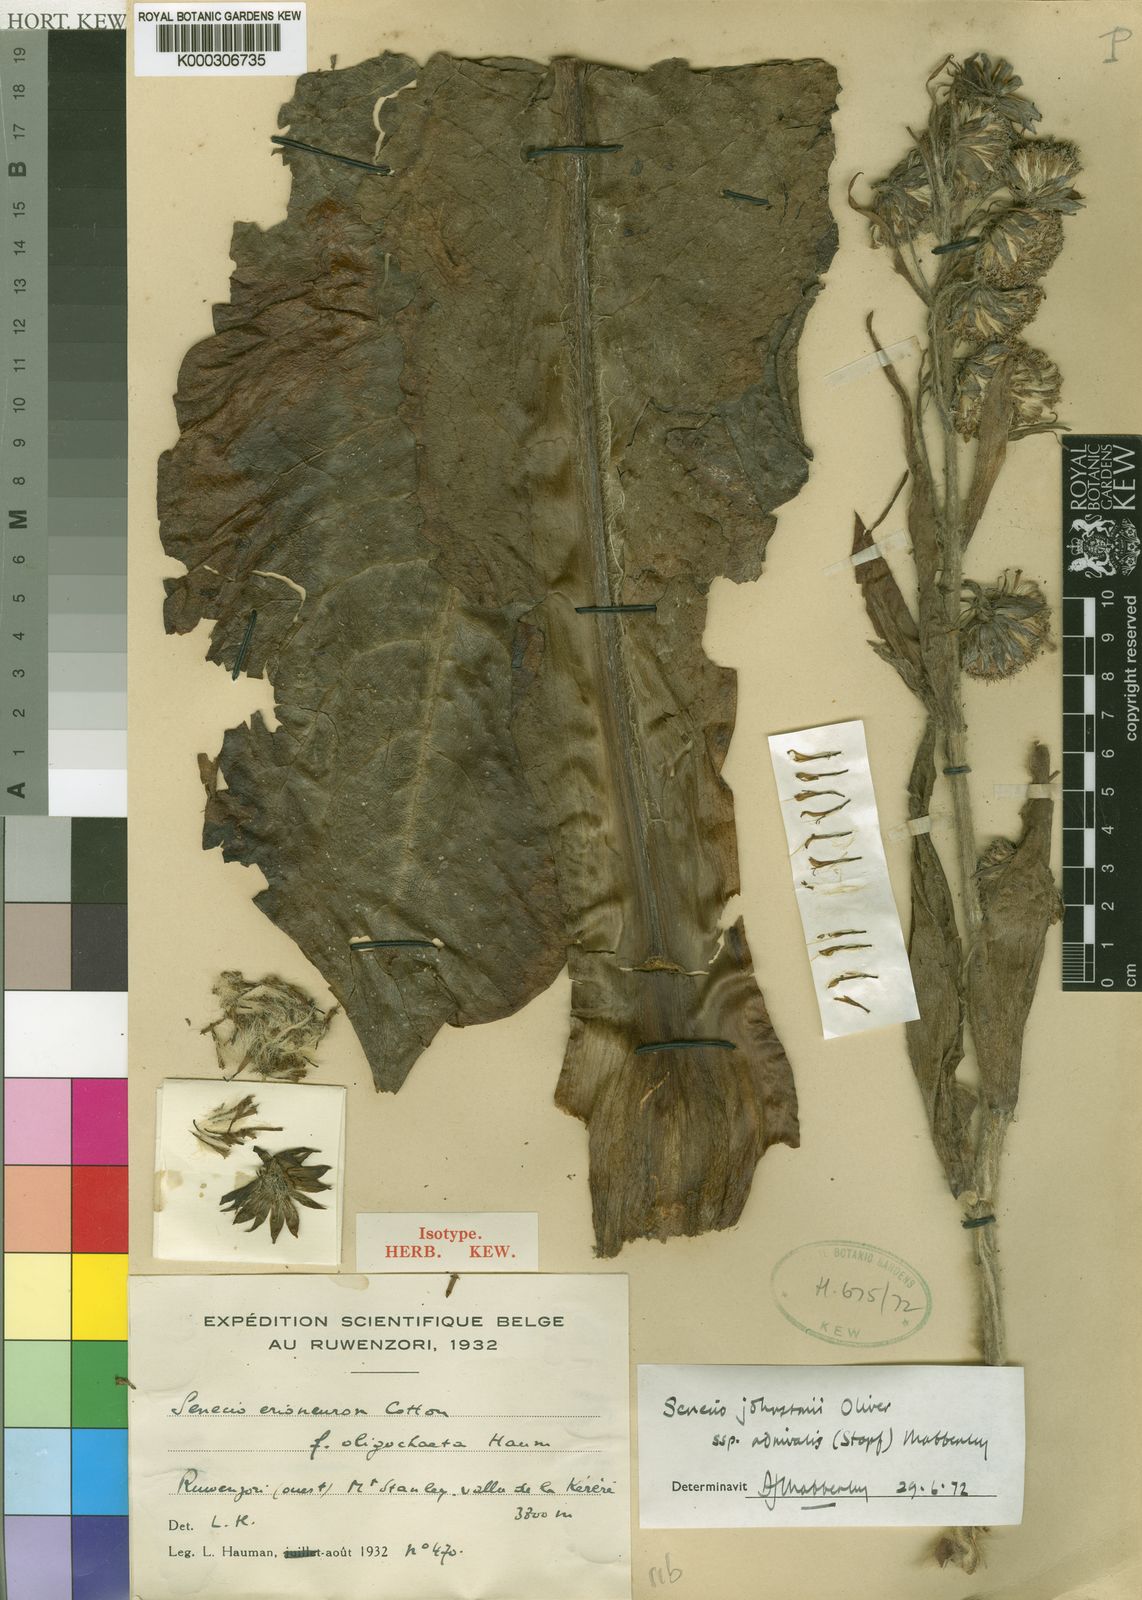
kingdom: Plantae
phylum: Tracheophyta
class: Magnoliopsida
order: Asterales
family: Asteraceae
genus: Dendrosenecio
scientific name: Dendrosenecio adnivalis
